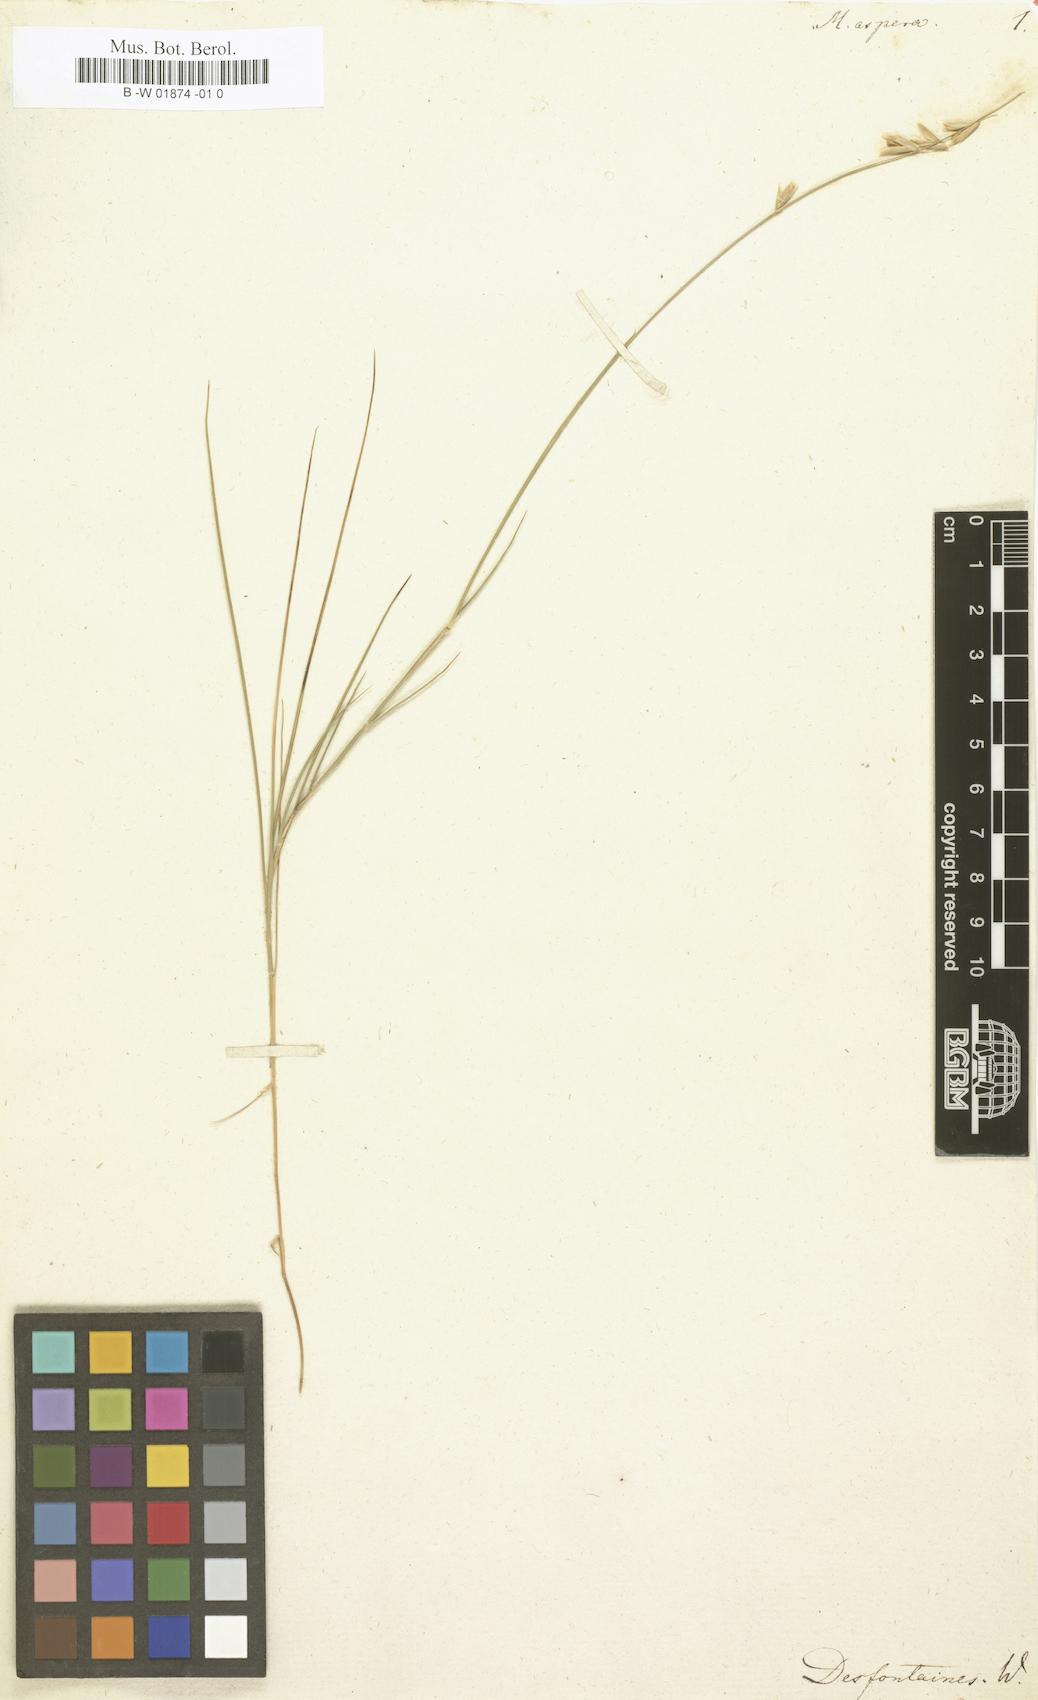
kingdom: Plantae
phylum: Tracheophyta
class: Liliopsida
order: Poales
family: Poaceae
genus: Melica
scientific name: Melica minuta
